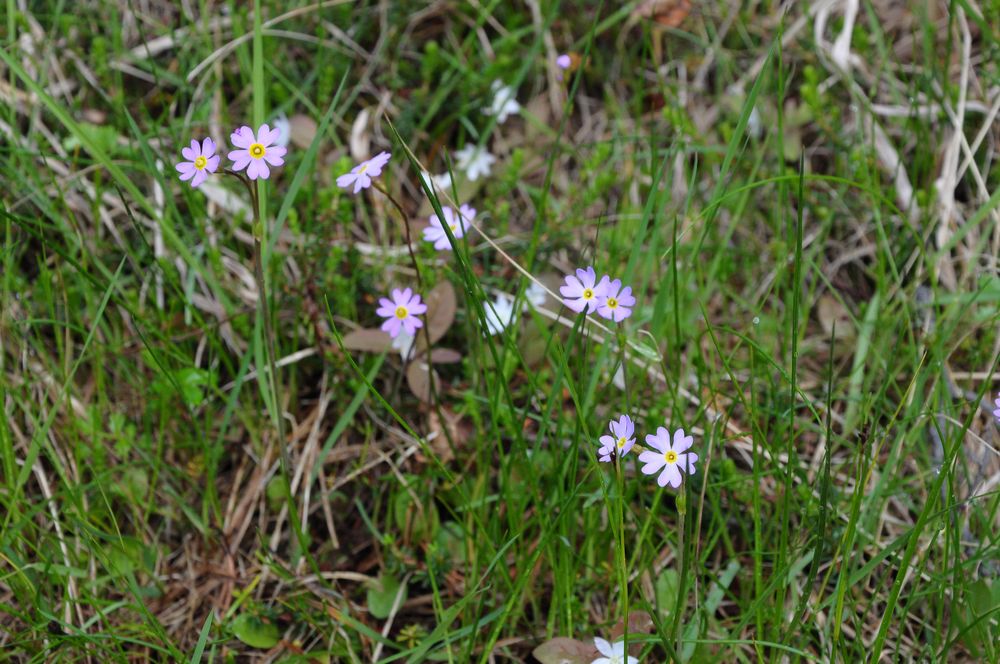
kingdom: Plantae
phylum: Tracheophyta
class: Magnoliopsida
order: Ericales
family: Primulaceae
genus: Primula
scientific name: Primula nutans
